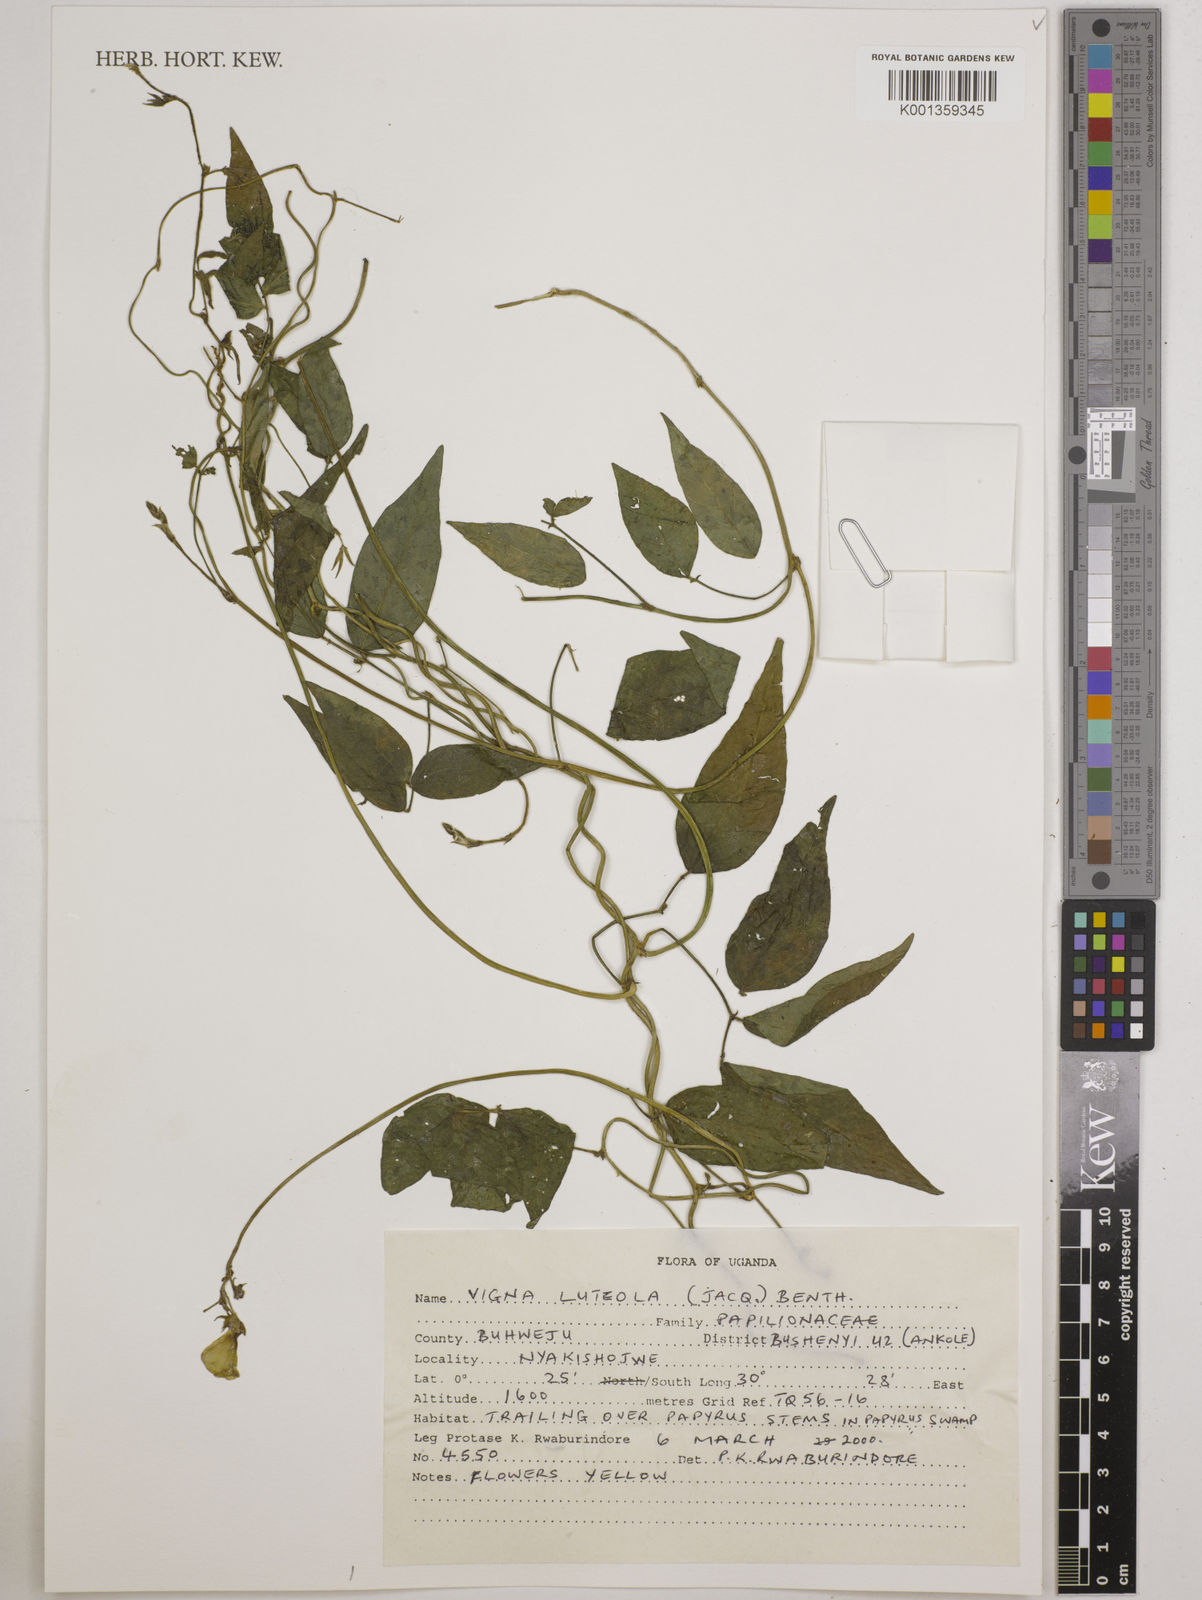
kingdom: Plantae
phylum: Tracheophyta
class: Magnoliopsida
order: Fabales
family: Fabaceae
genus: Vigna
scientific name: Vigna luteola
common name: Hairypod cowpea
